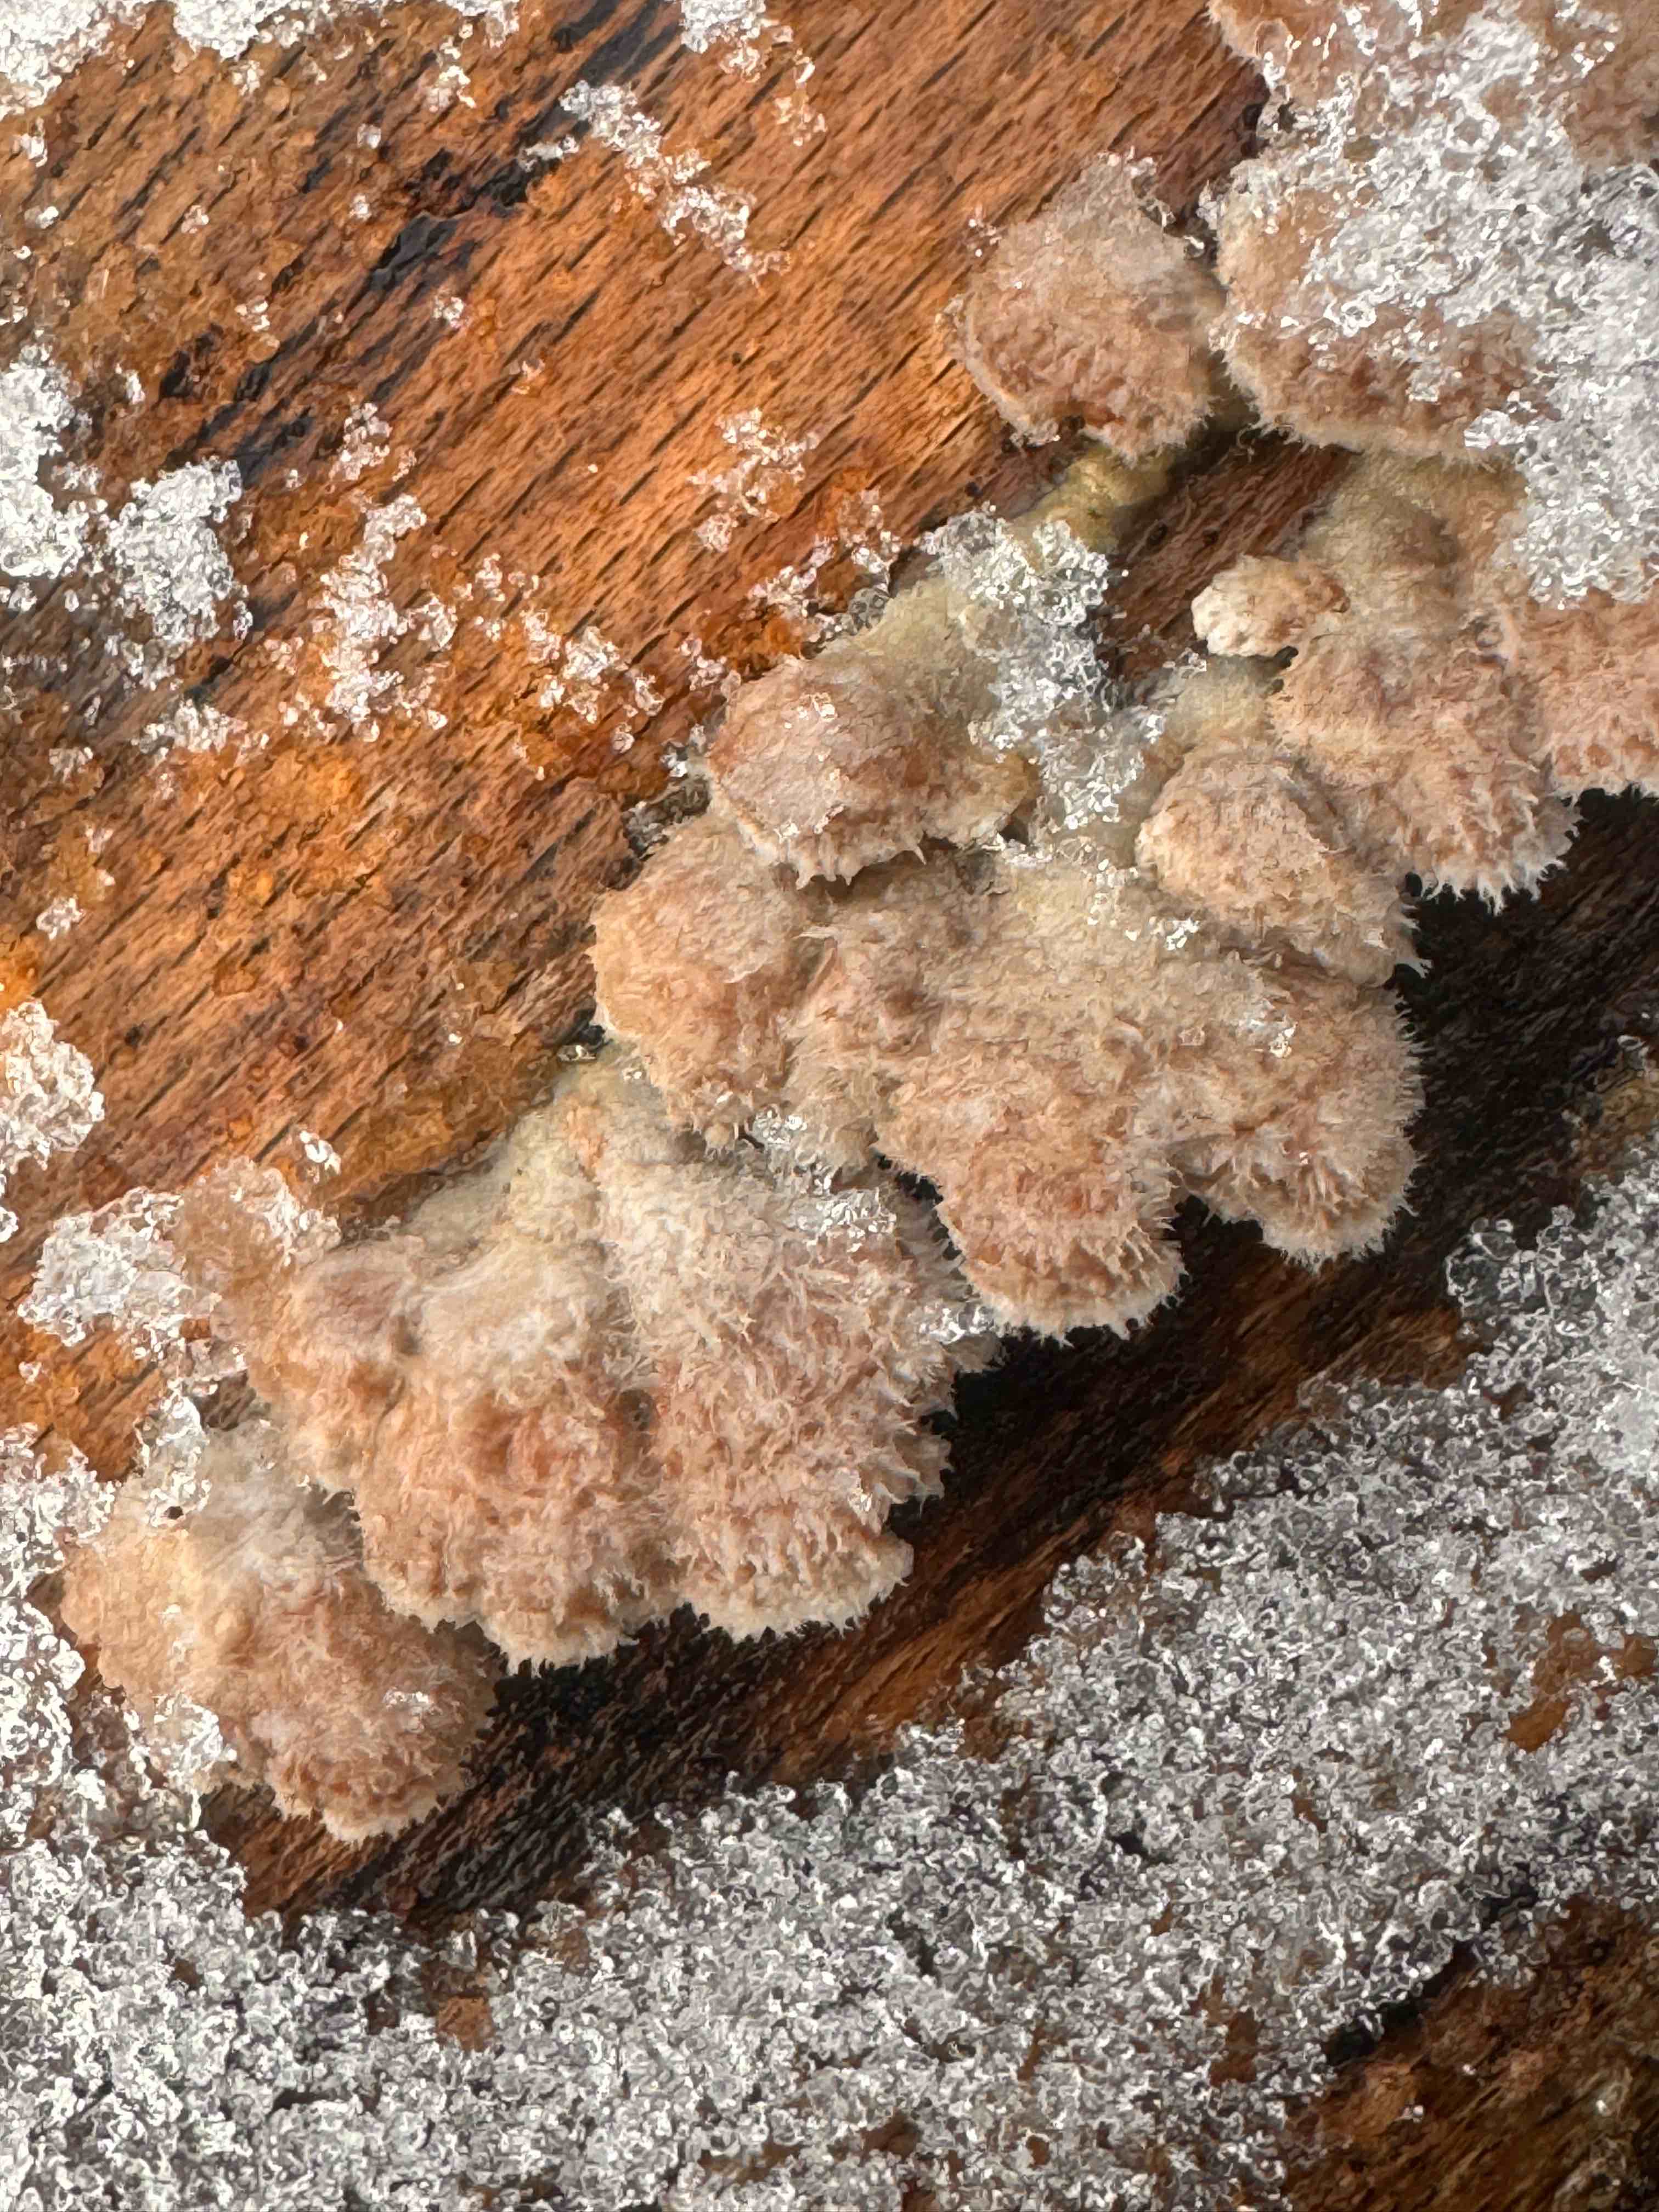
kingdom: Fungi
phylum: Basidiomycota
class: Agaricomycetes
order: Agaricales
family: Schizophyllaceae
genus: Schizophyllum
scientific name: Schizophyllum commune
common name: kløvblad
